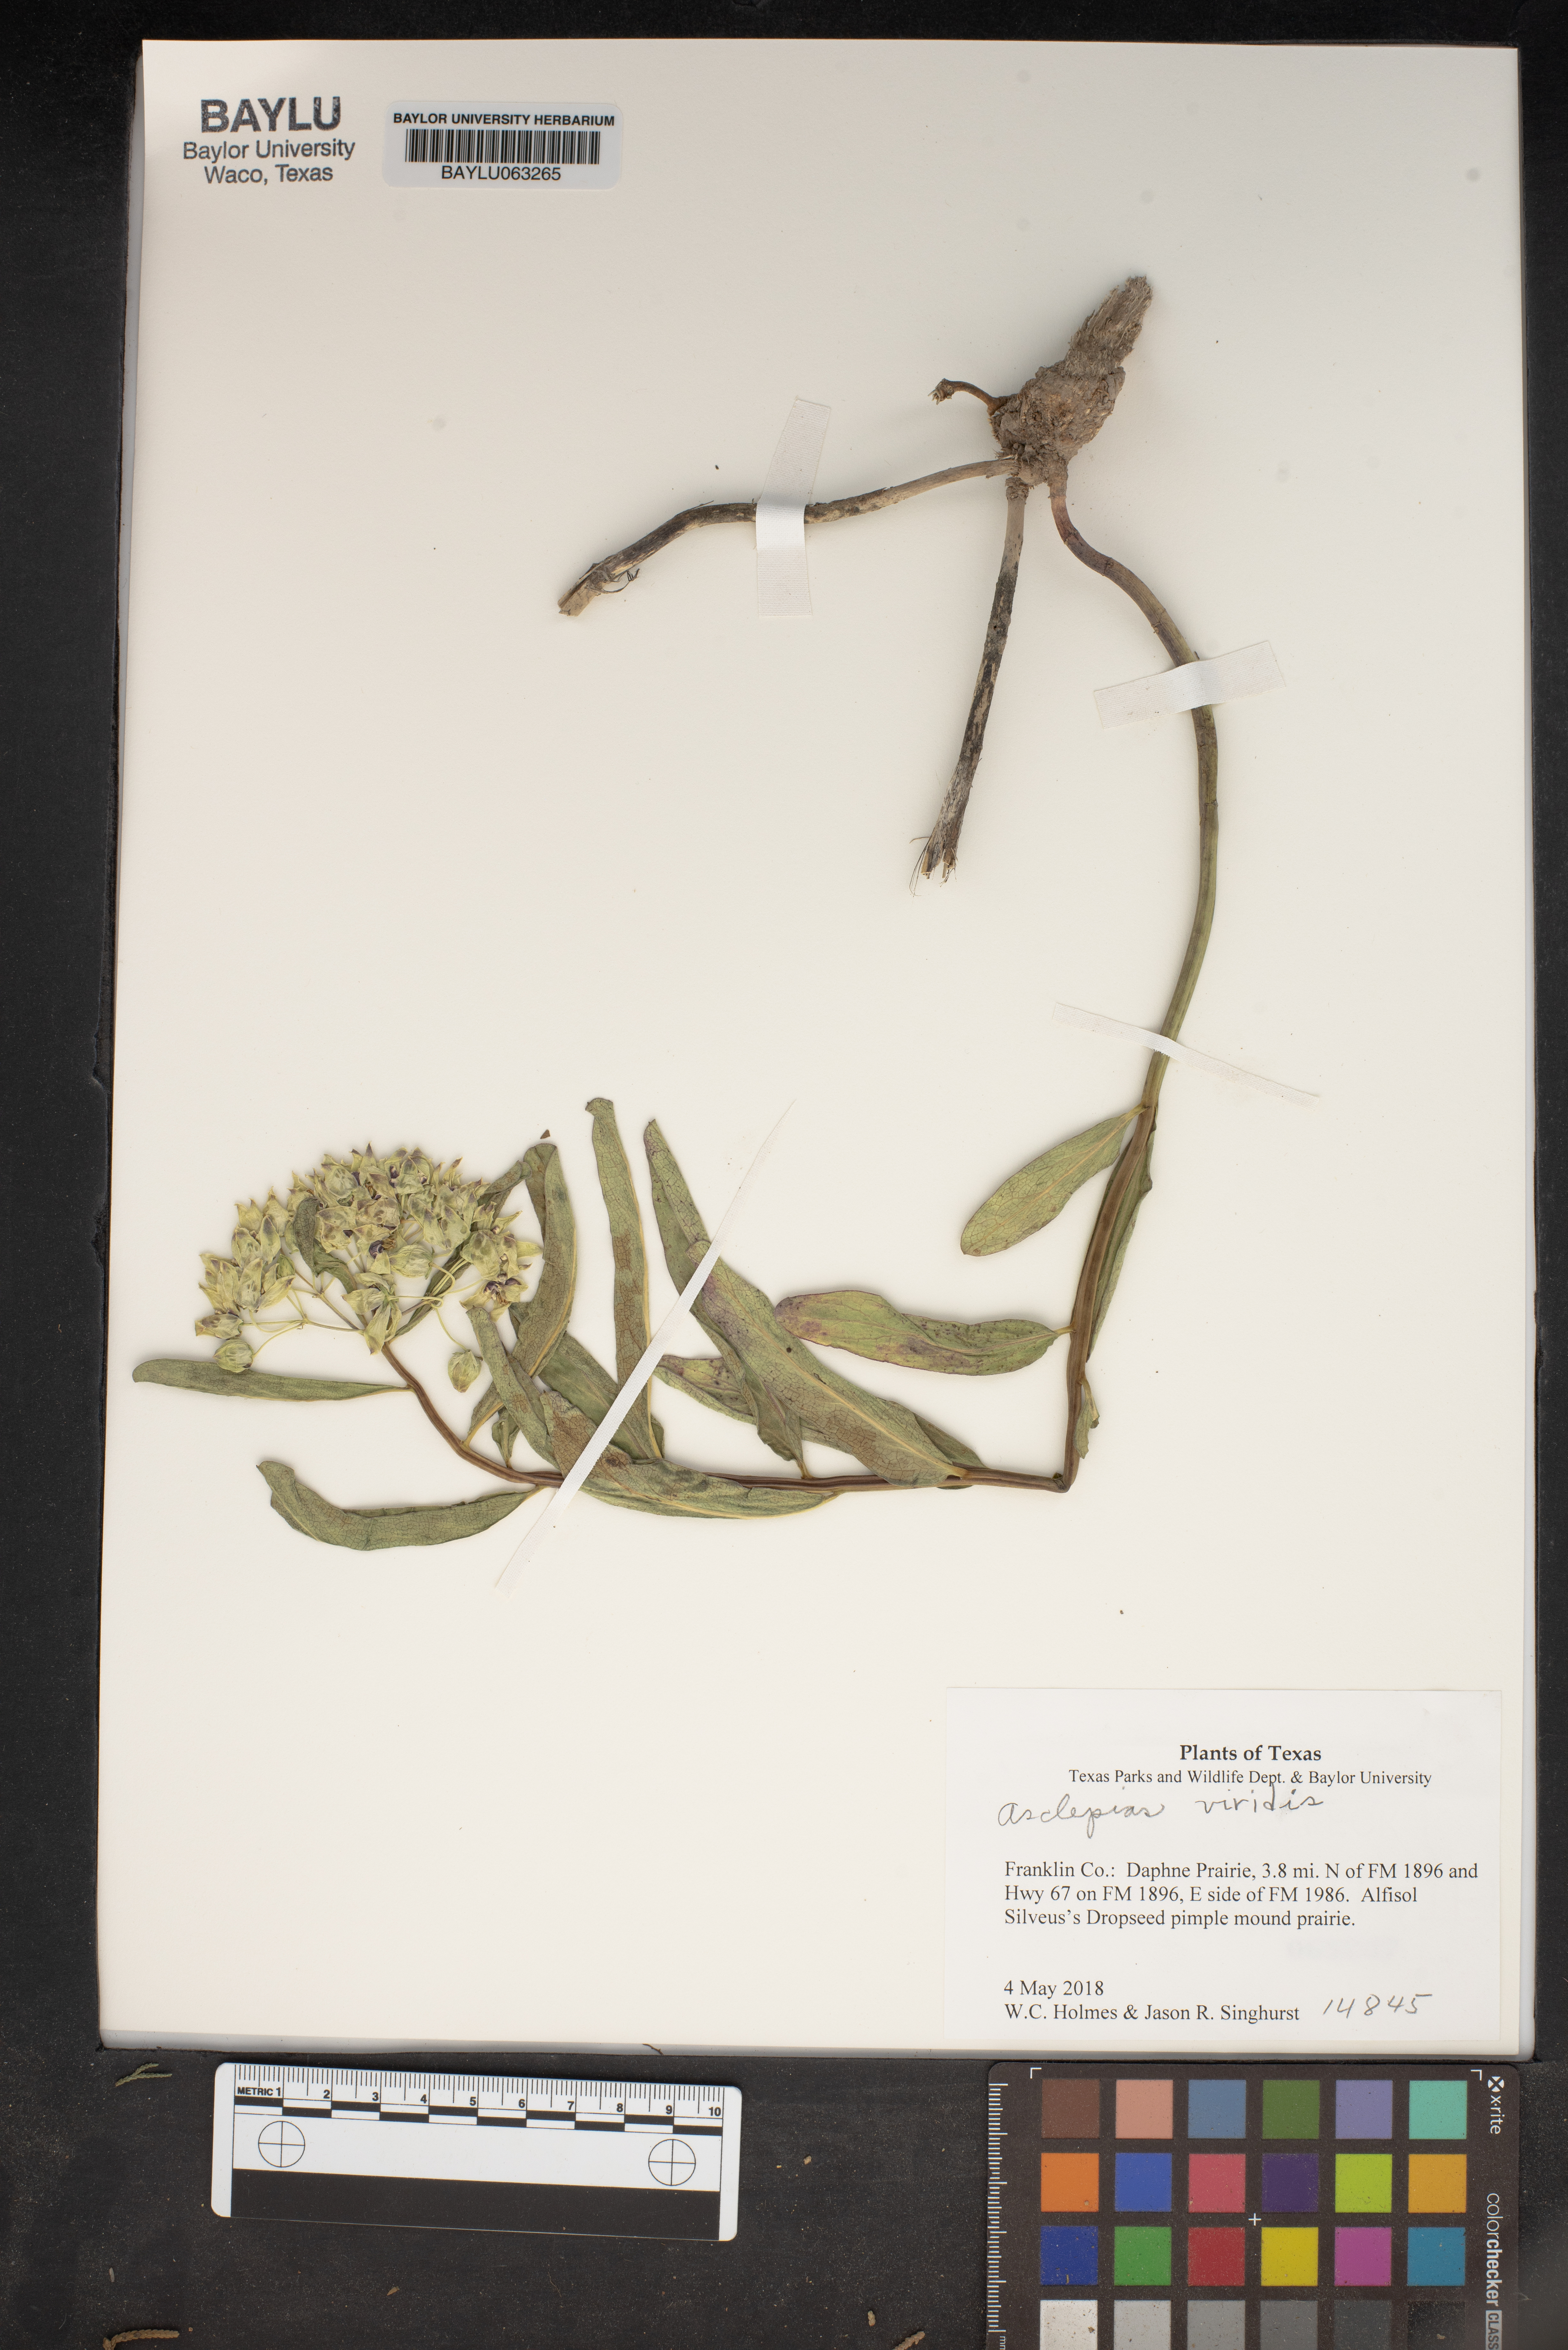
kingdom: Plantae
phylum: Tracheophyta
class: Magnoliopsida
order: Gentianales
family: Apocynaceae
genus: Asclepias
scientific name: Asclepias viridis
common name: Antelope-horns
